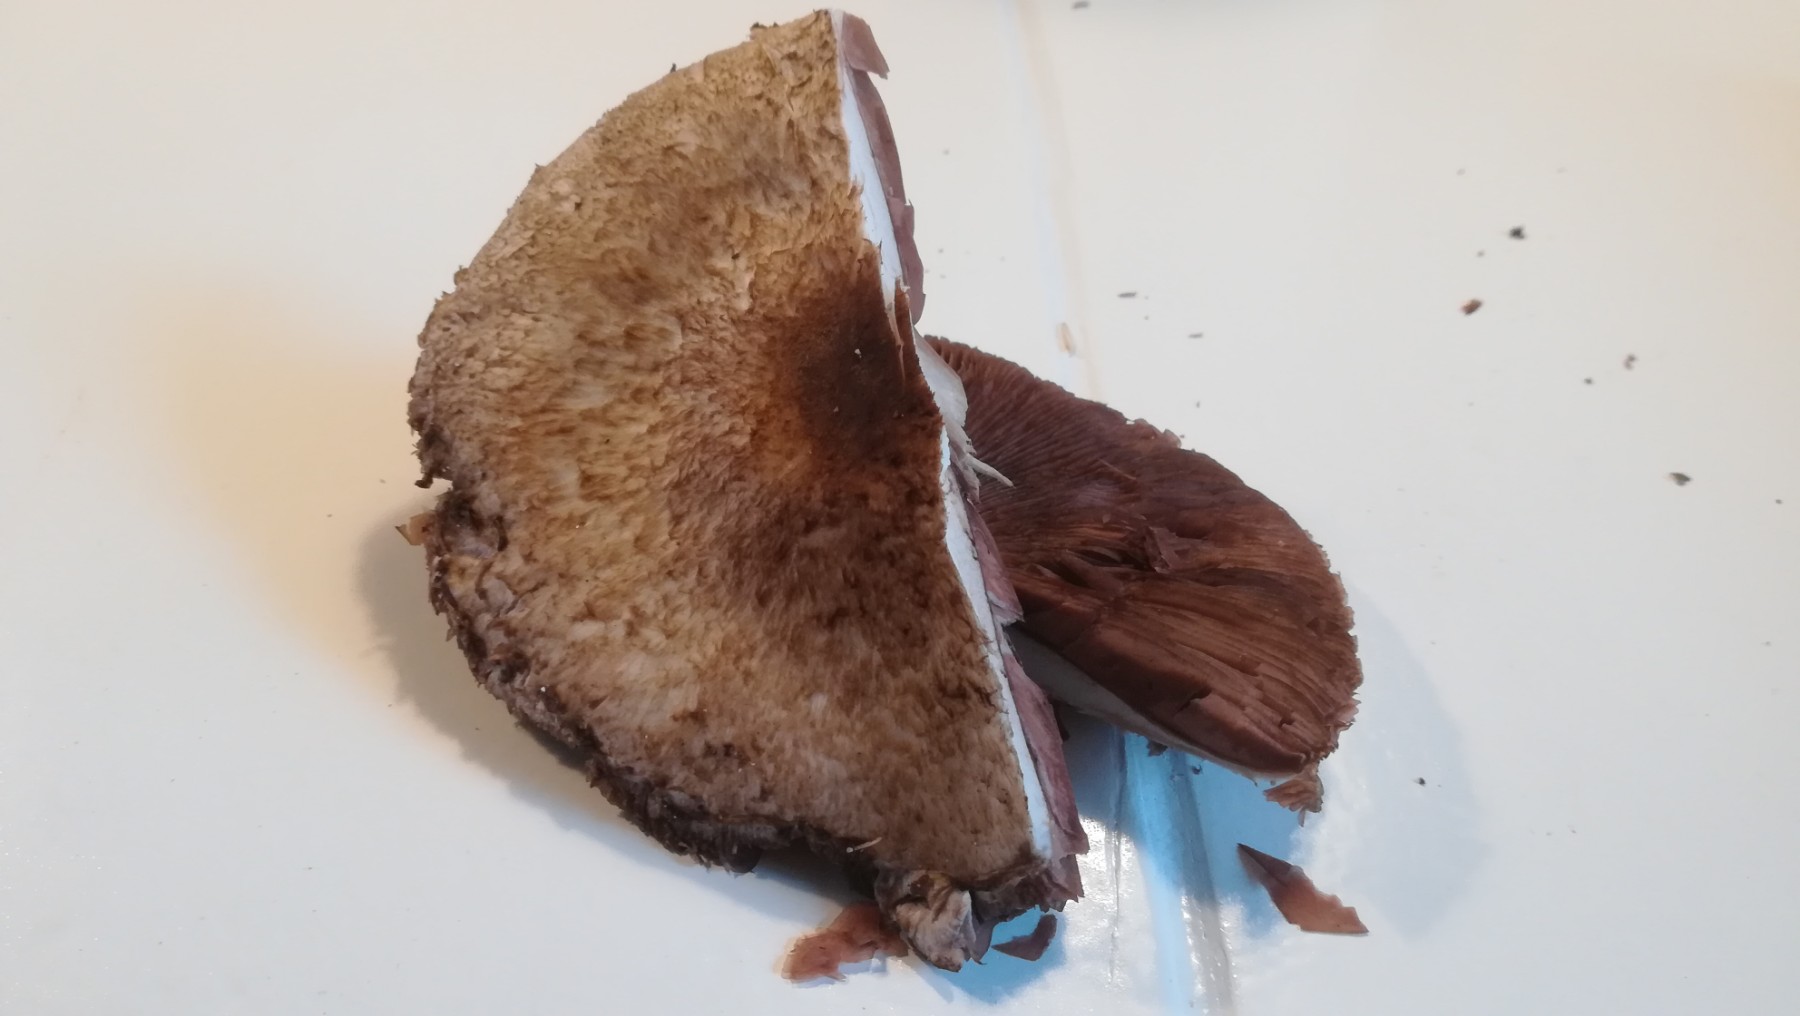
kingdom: Fungi
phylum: Basidiomycota
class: Agaricomycetes
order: Agaricales
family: Agaricaceae
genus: Agaricus
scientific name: Agaricus
